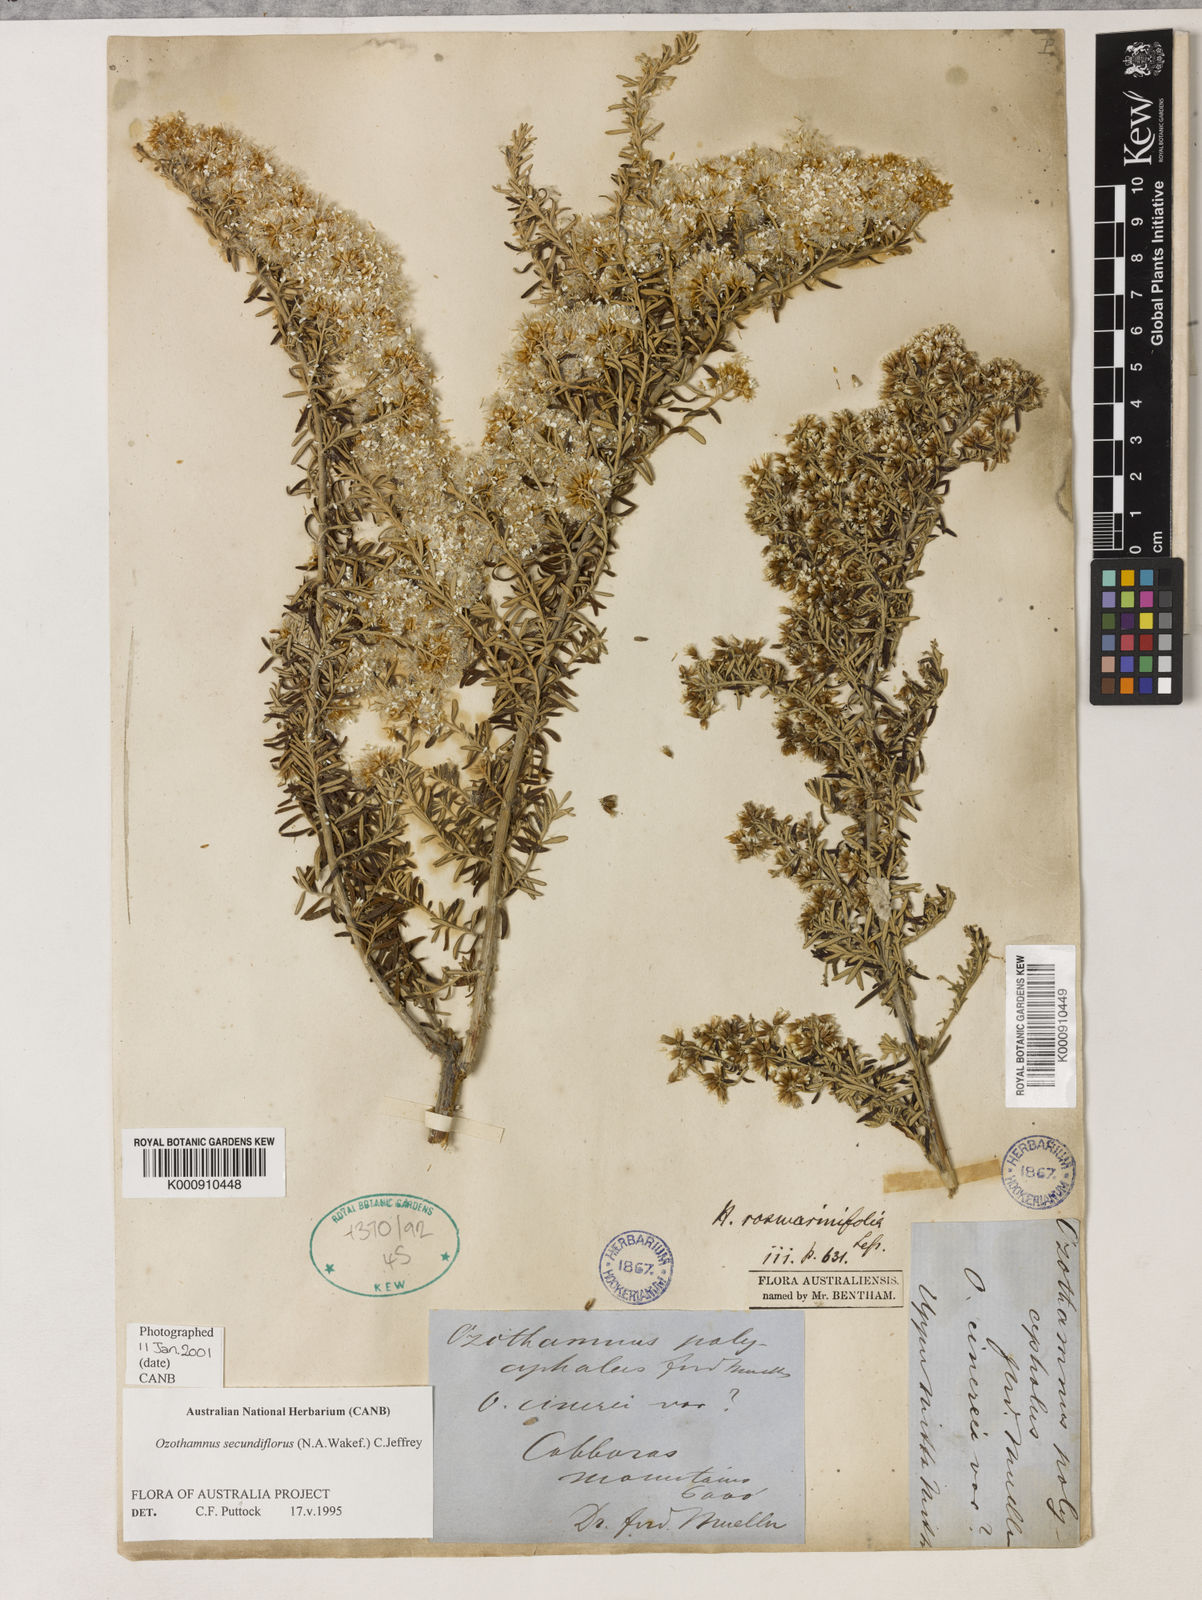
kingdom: Plantae
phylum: Tracheophyta
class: Magnoliopsida
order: Asterales
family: Asteraceae
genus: Ozothamnus
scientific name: Ozothamnus secundiflorus
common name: Cascade everlasting
